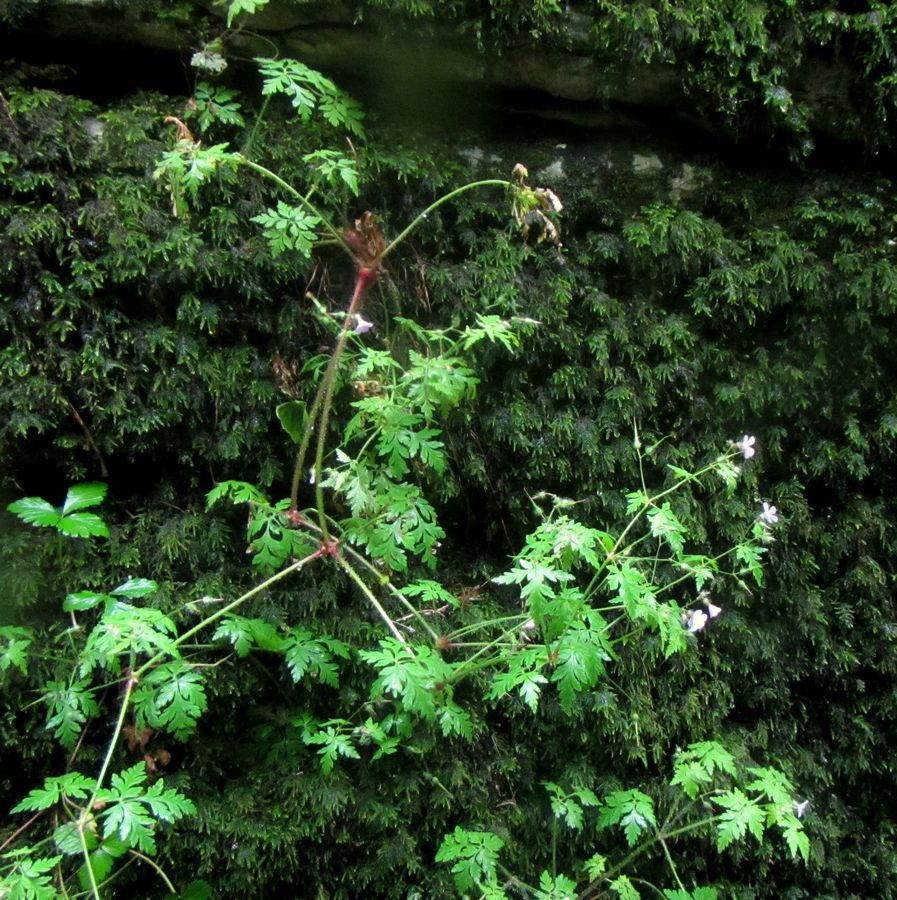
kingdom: Plantae
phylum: Tracheophyta
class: Magnoliopsida
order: Geraniales
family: Geraniaceae
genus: Geranium
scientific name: Geranium robertianum
